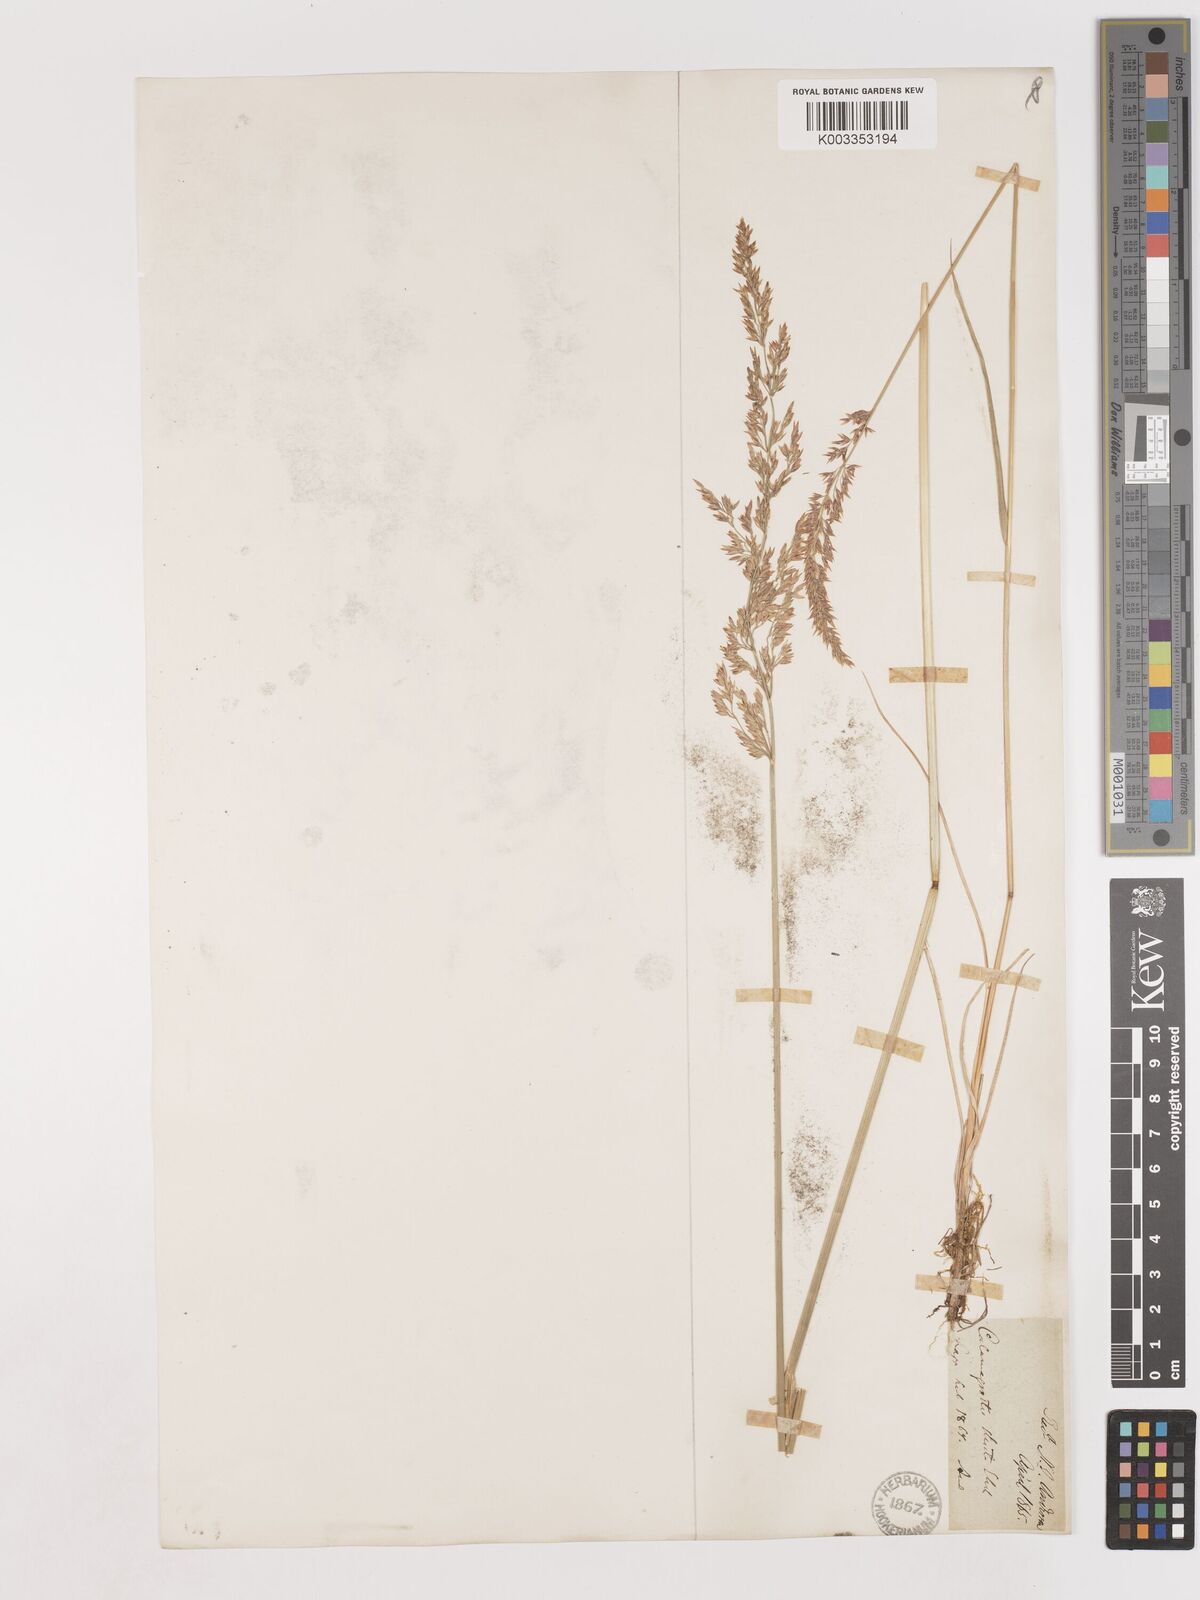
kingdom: Plantae
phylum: Tracheophyta
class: Liliopsida
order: Poales
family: Poaceae
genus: Cinnagrostis
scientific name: Cinnagrostis recta
